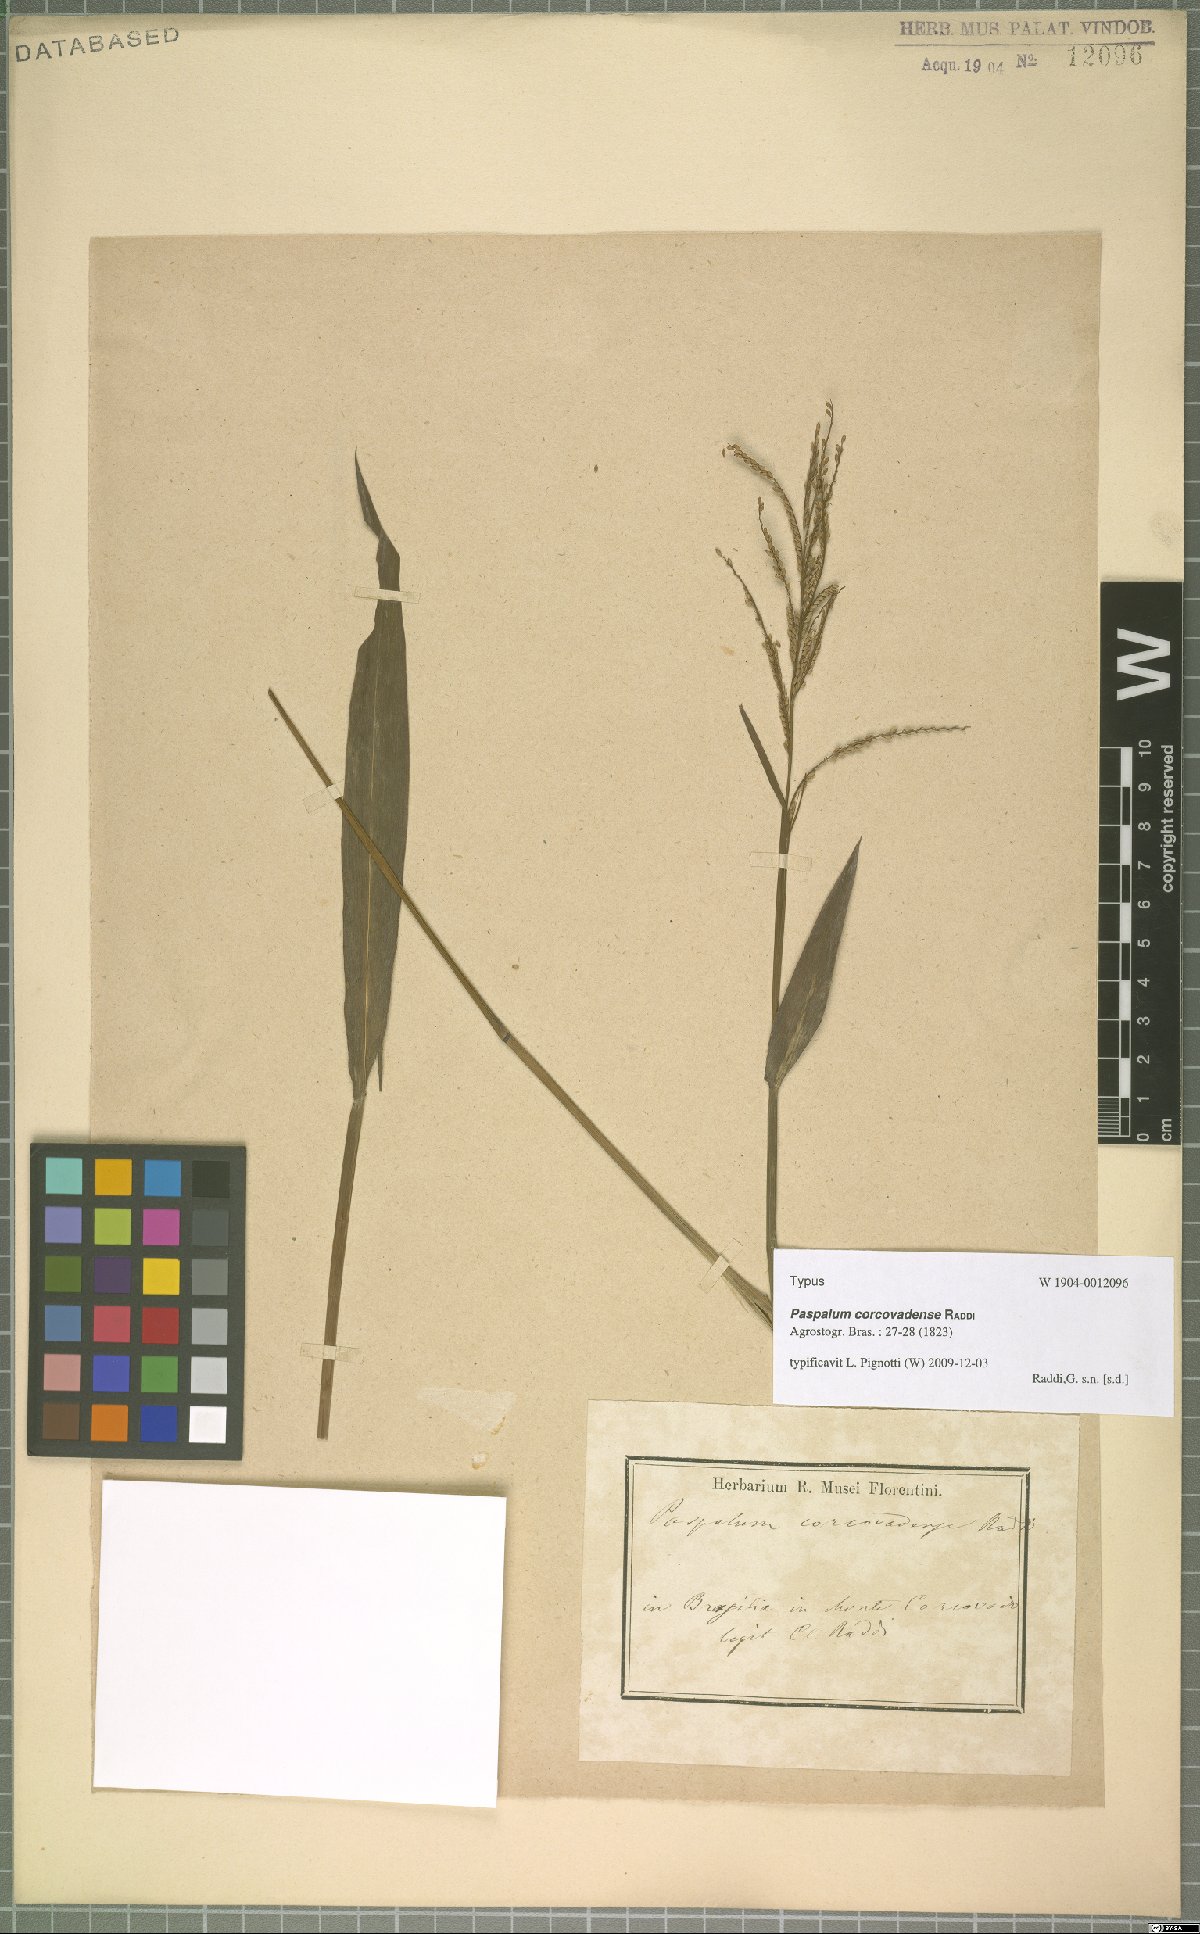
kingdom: Plantae
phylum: Tracheophyta
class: Liliopsida
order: Poales
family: Poaceae
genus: Paspalum
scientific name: Paspalum corcovadense
